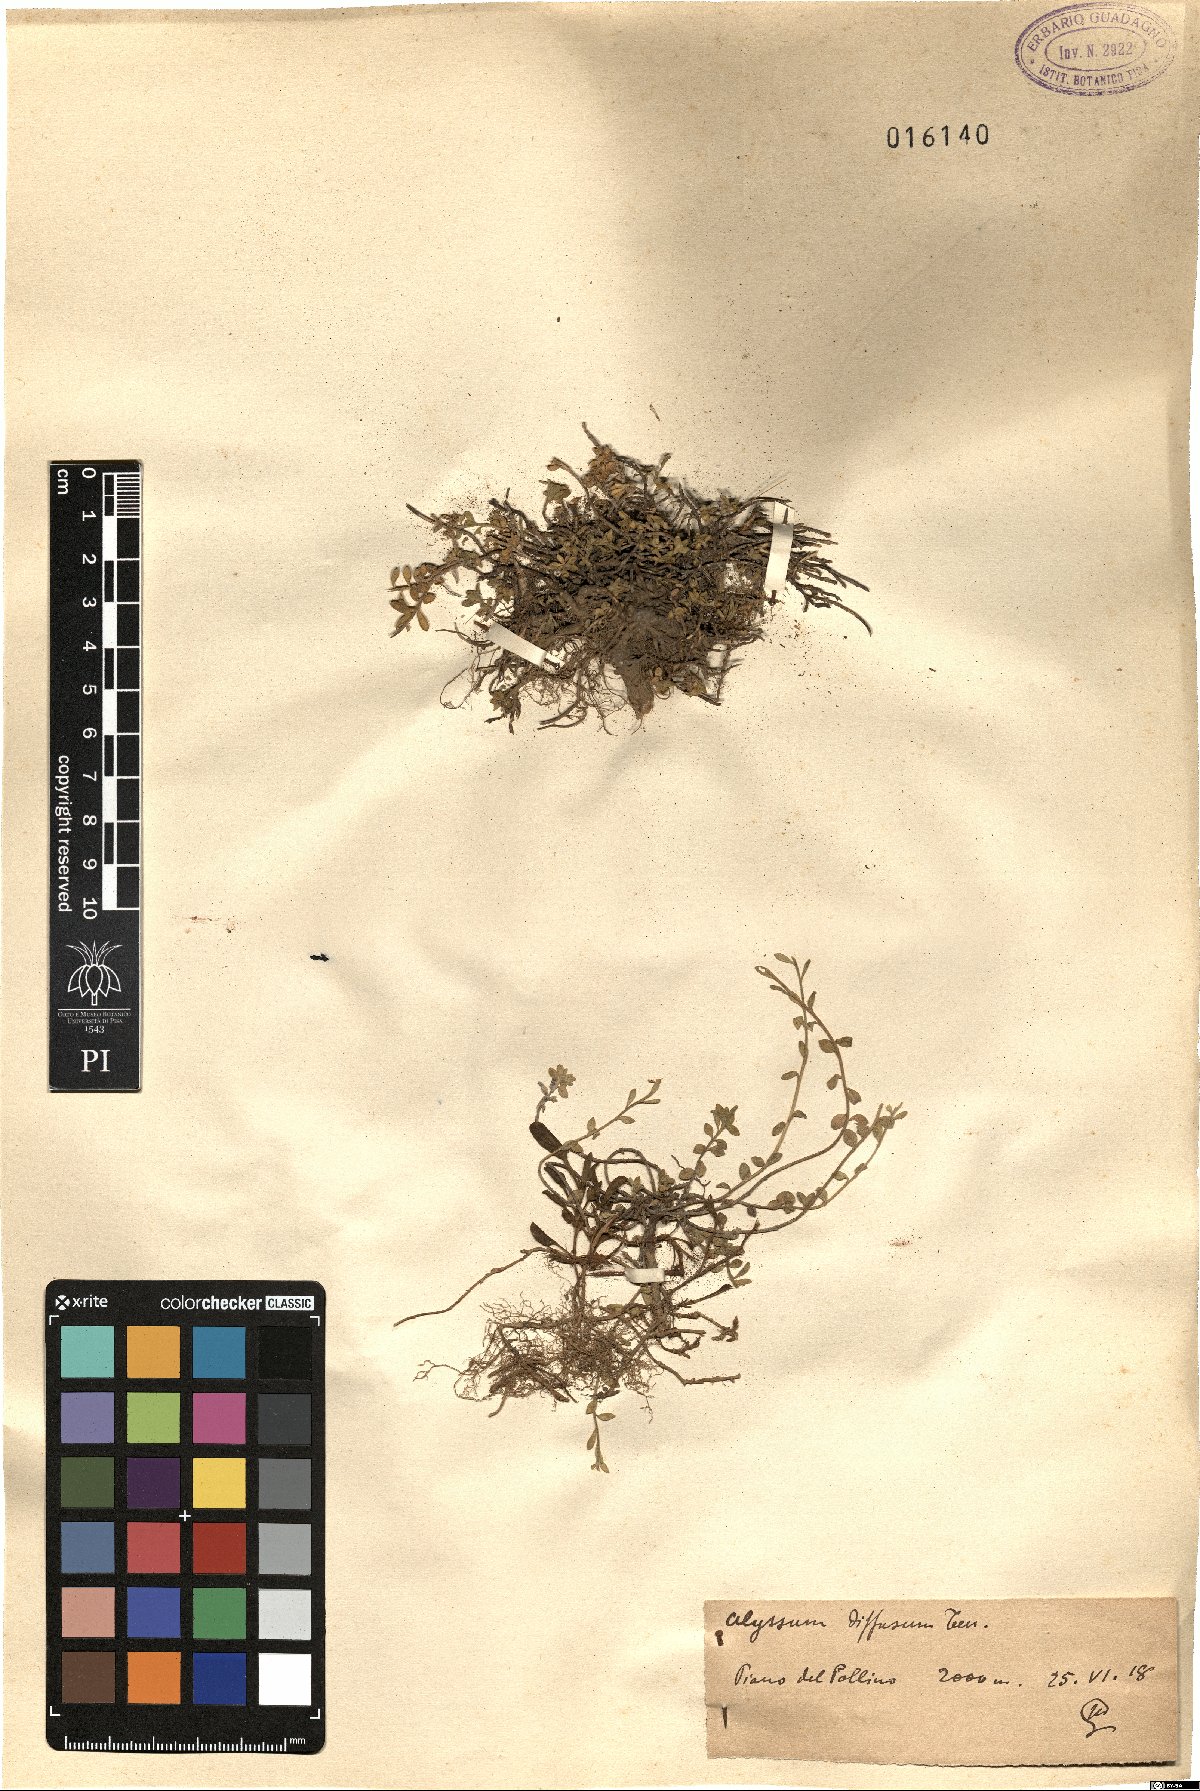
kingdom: Plantae
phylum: Tracheophyta
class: Magnoliopsida
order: Brassicales
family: Brassicaceae
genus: Alyssum
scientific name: Alyssum diffusum
